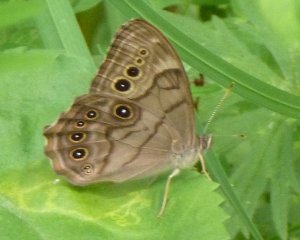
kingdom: Animalia
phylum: Arthropoda
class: Insecta
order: Lepidoptera
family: Nymphalidae
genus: Lethe
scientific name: Lethe anthedon
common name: Northern Pearly-Eye
